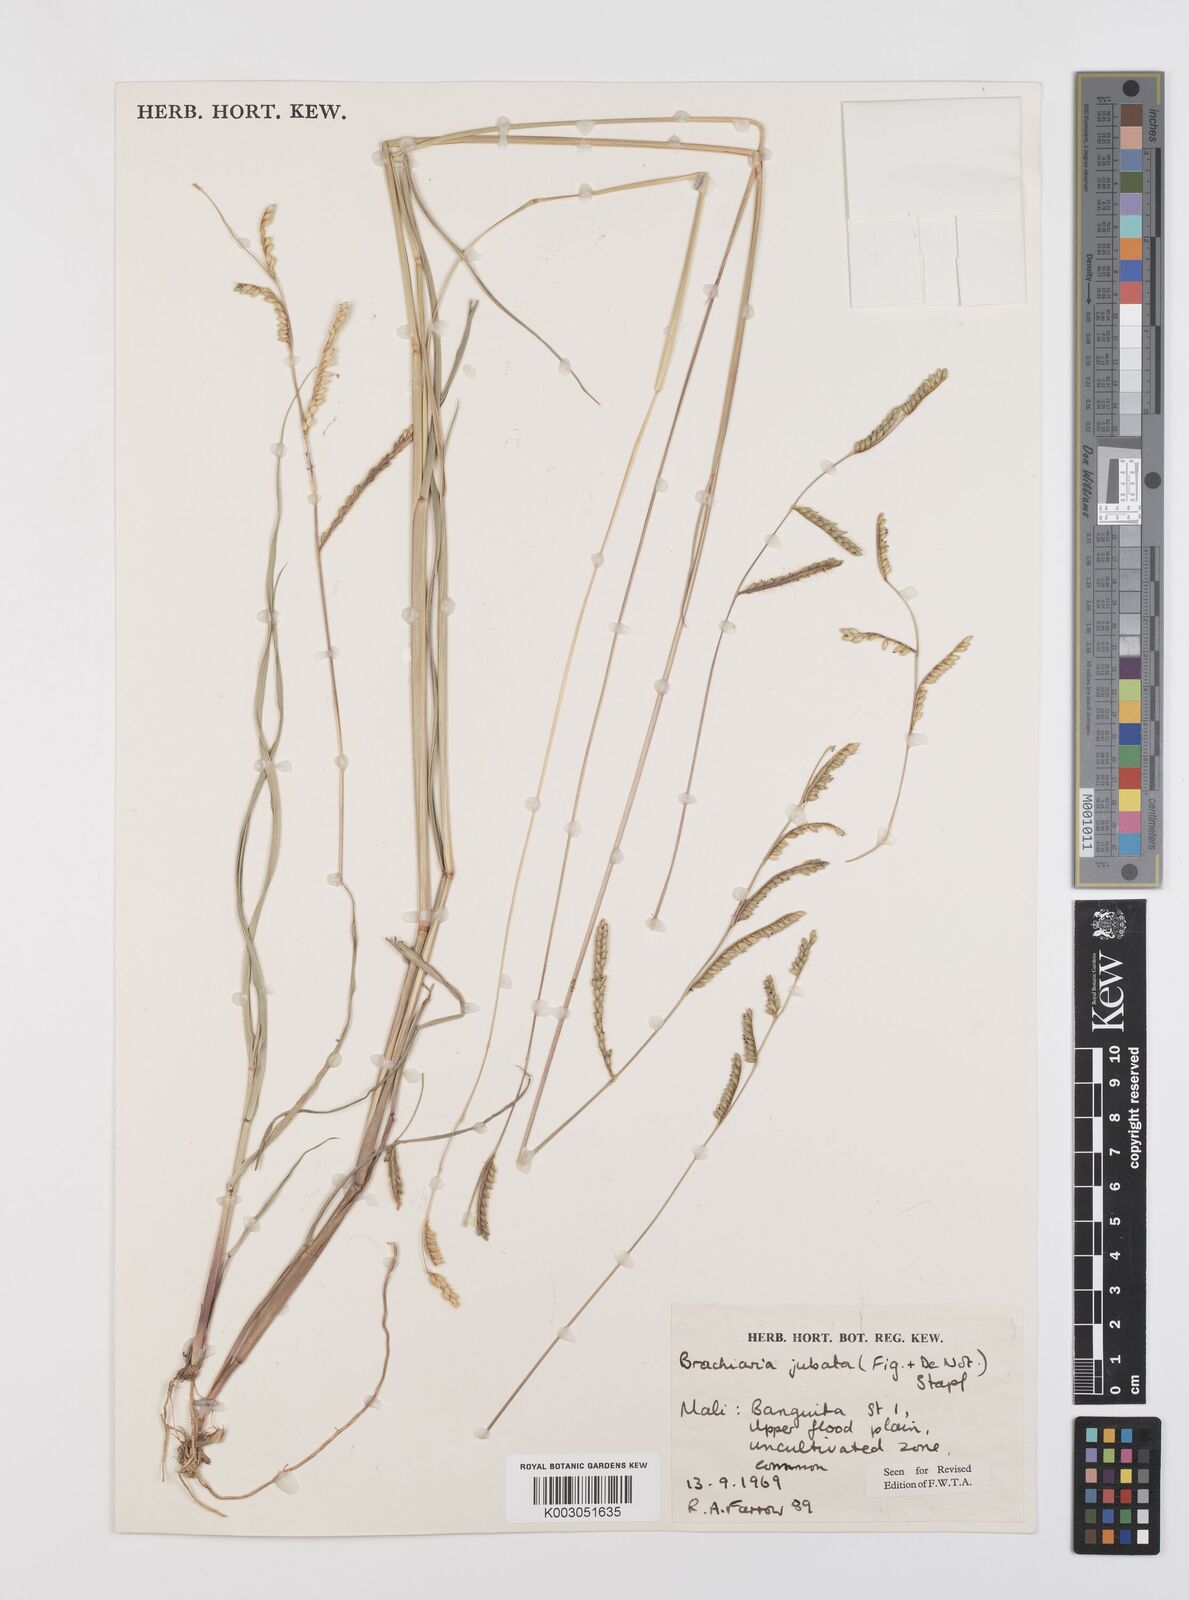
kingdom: Plantae
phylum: Tracheophyta
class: Liliopsida
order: Poales
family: Poaceae
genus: Urochloa
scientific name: Urochloa jubata
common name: Buffalograss
